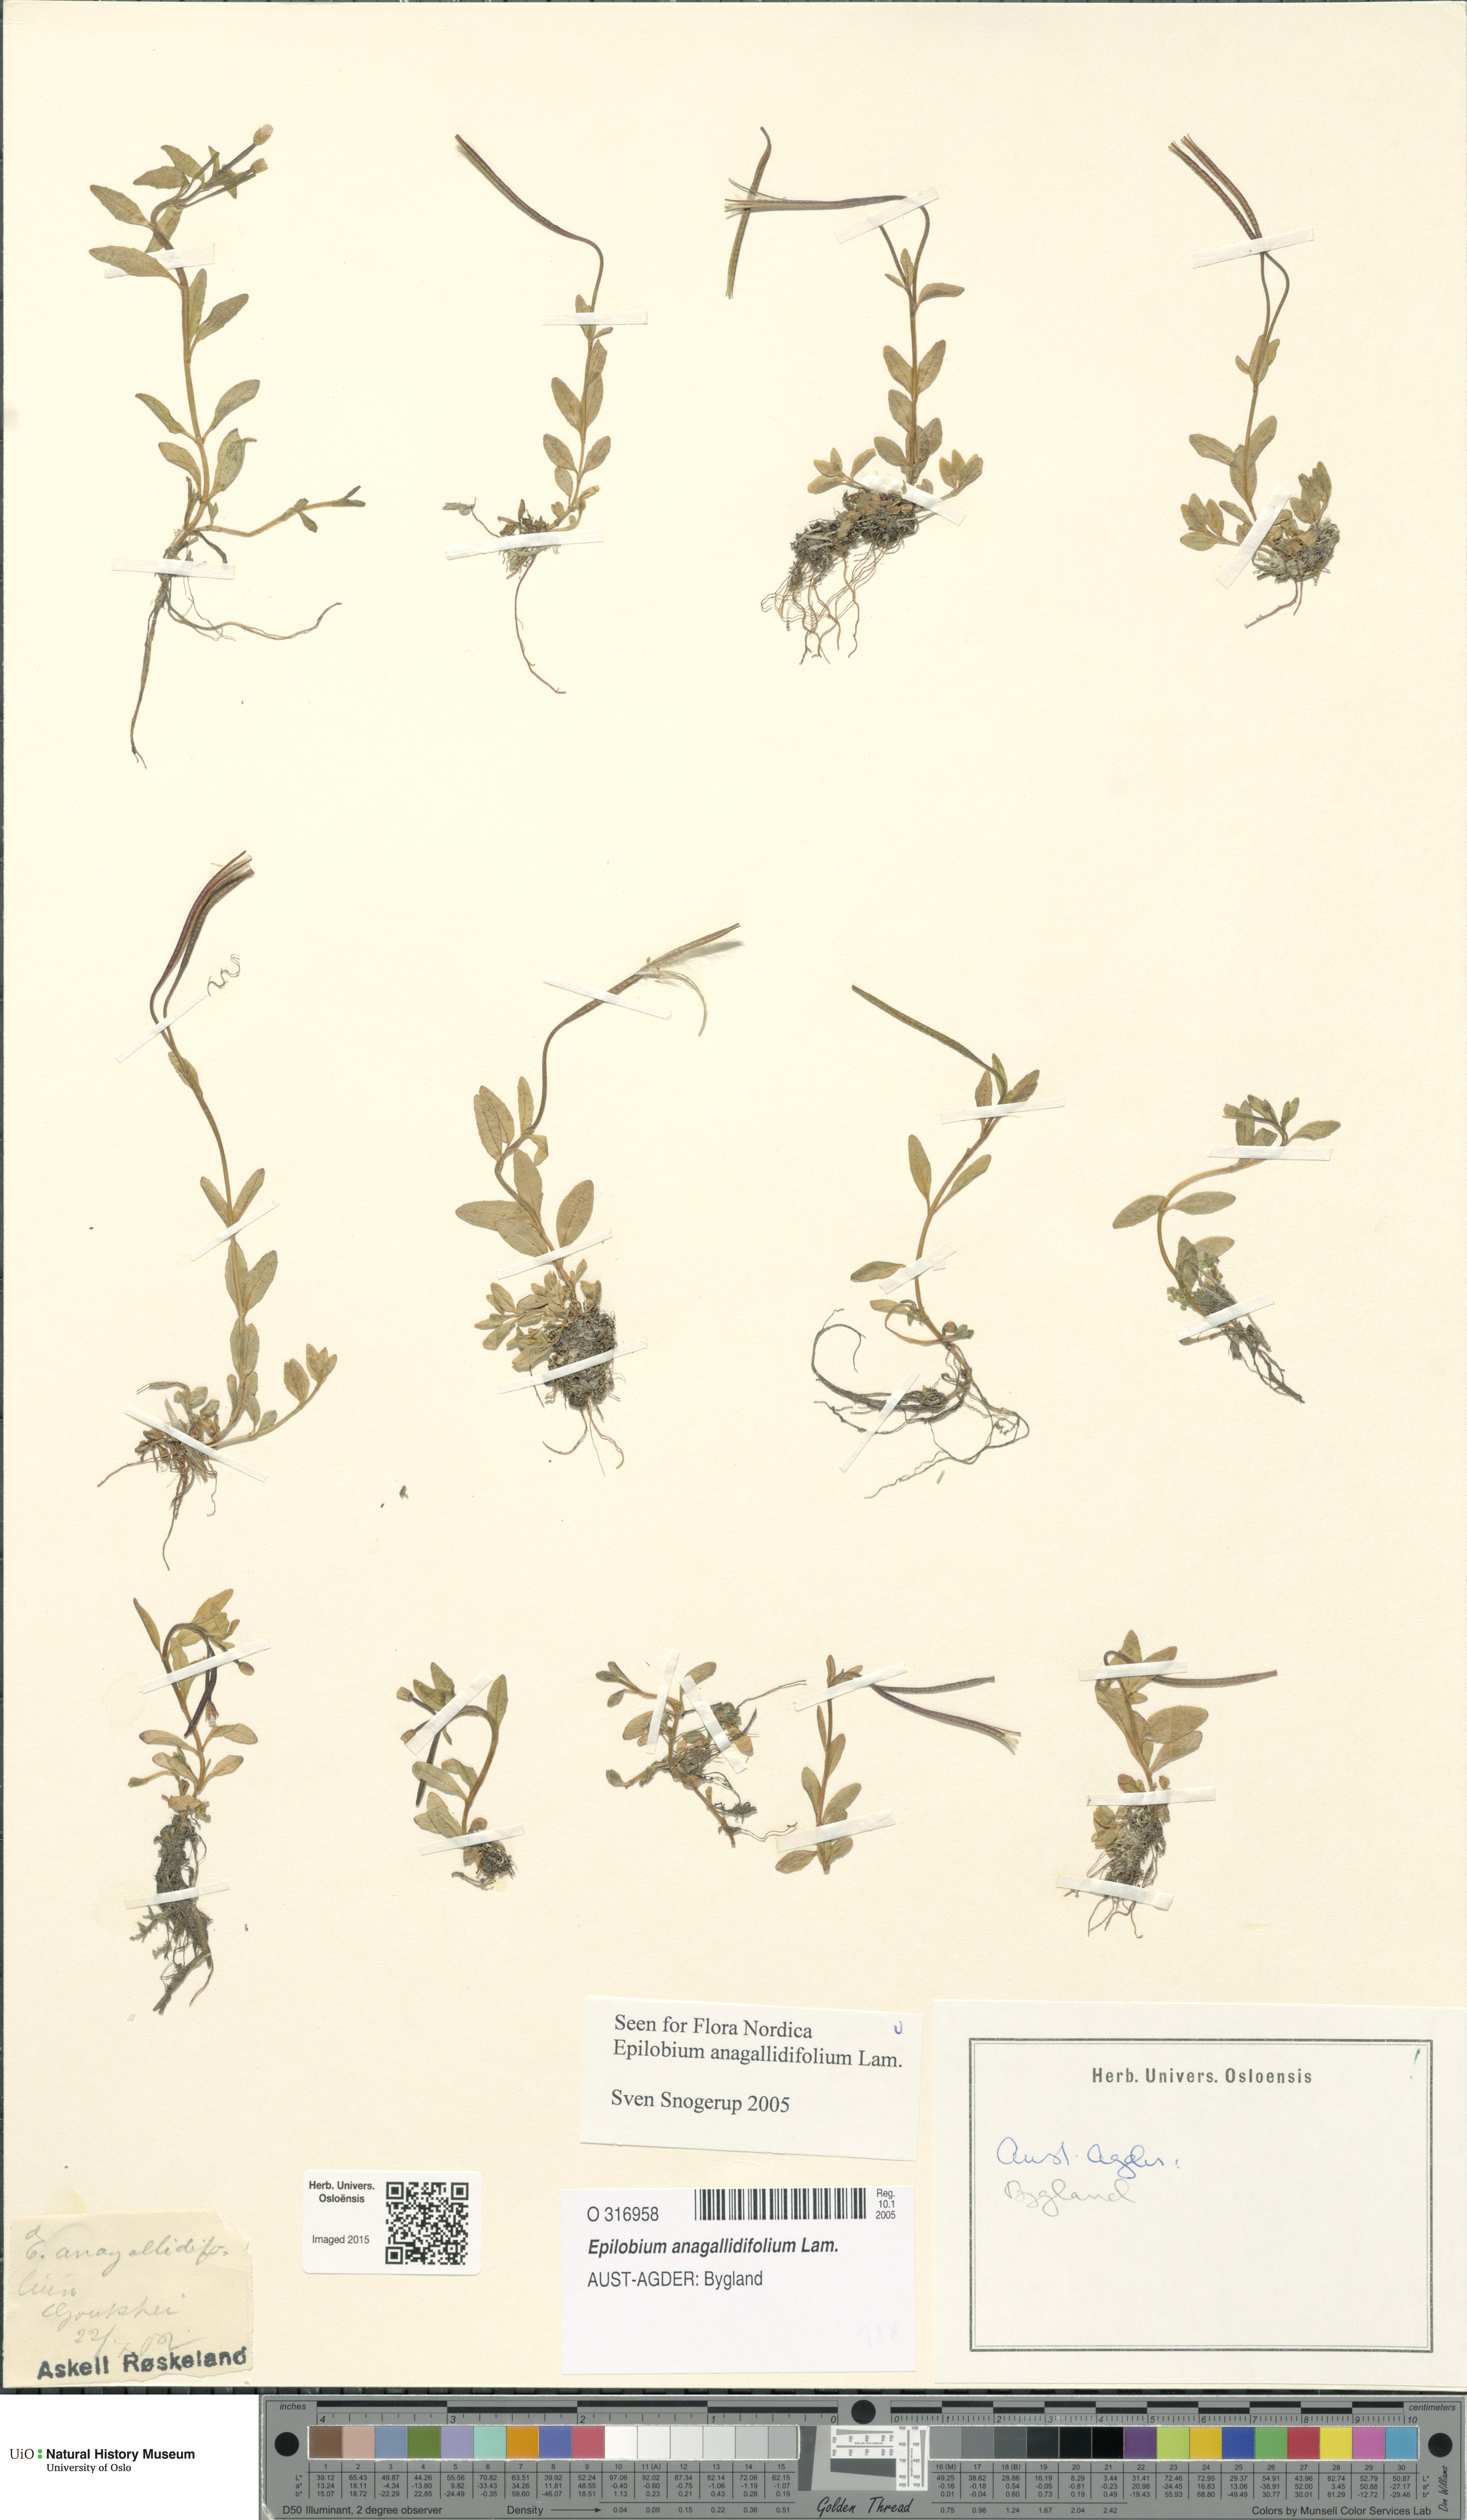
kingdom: Plantae
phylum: Tracheophyta
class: Magnoliopsida
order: Myrtales
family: Onagraceae
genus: Epilobium
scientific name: Epilobium anagallidifolium
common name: Alpine willowherb
